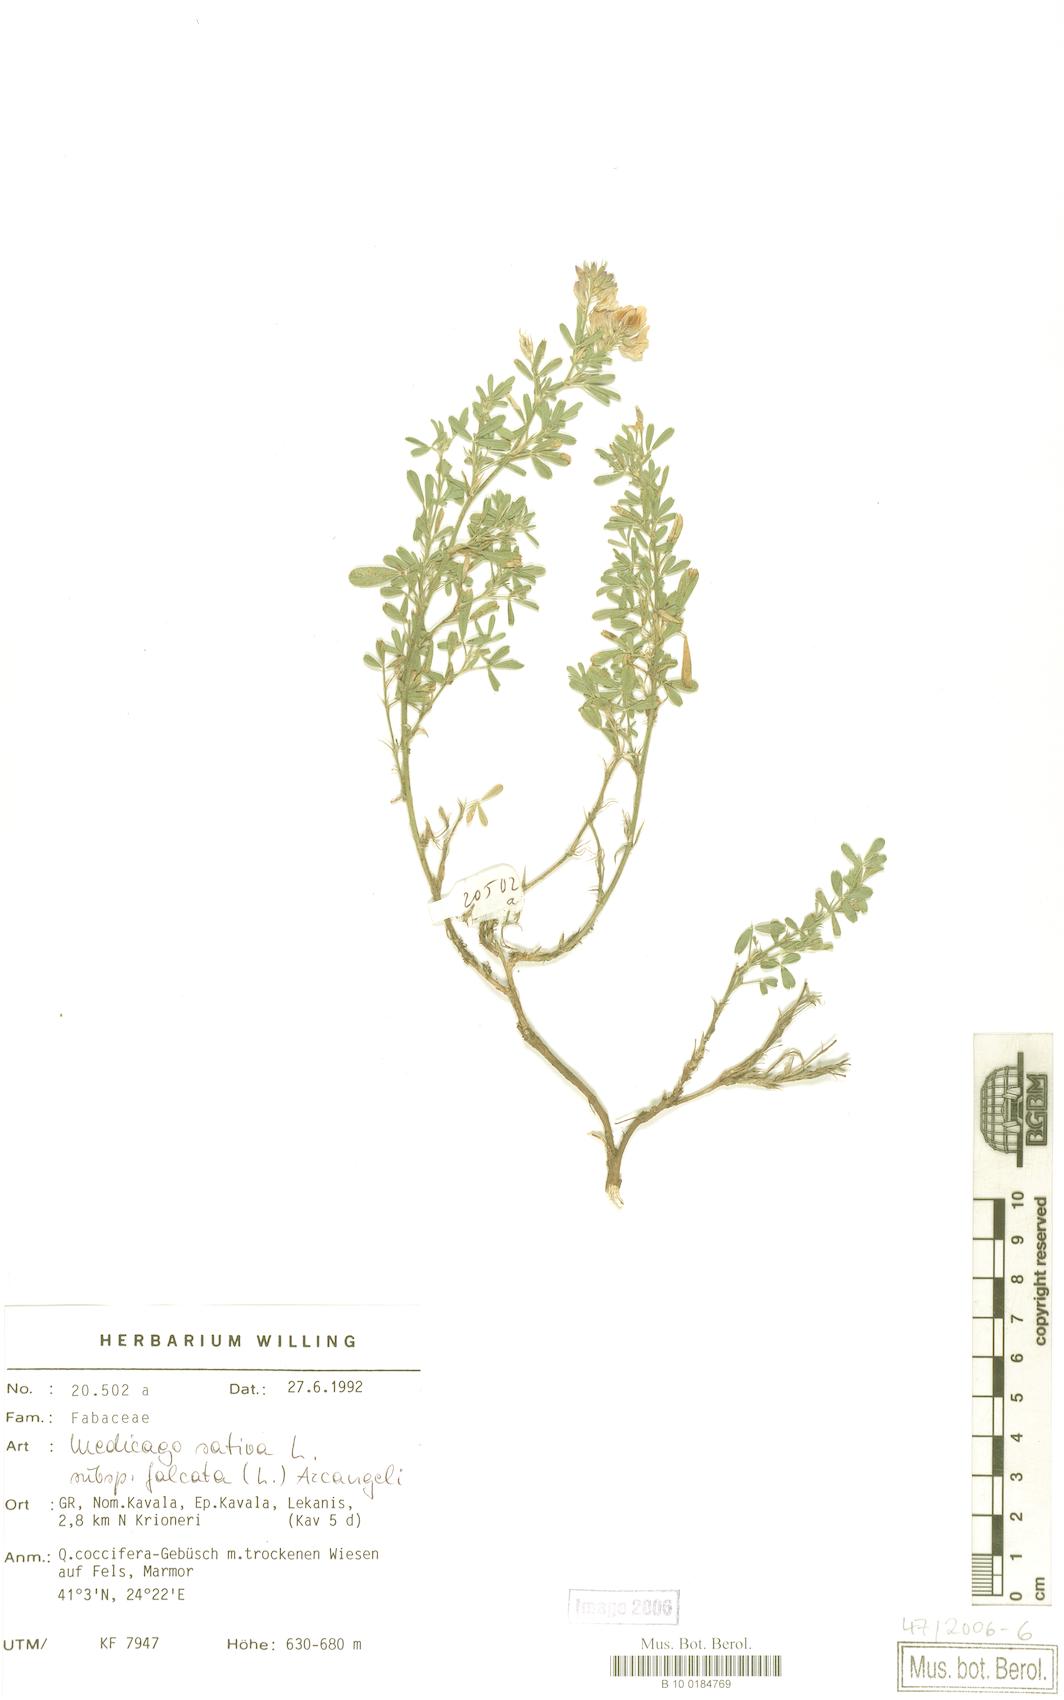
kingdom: Plantae
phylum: Tracheophyta
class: Magnoliopsida
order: Fabales
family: Fabaceae
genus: Medicago
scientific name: Medicago falcata
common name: Sickle medick
